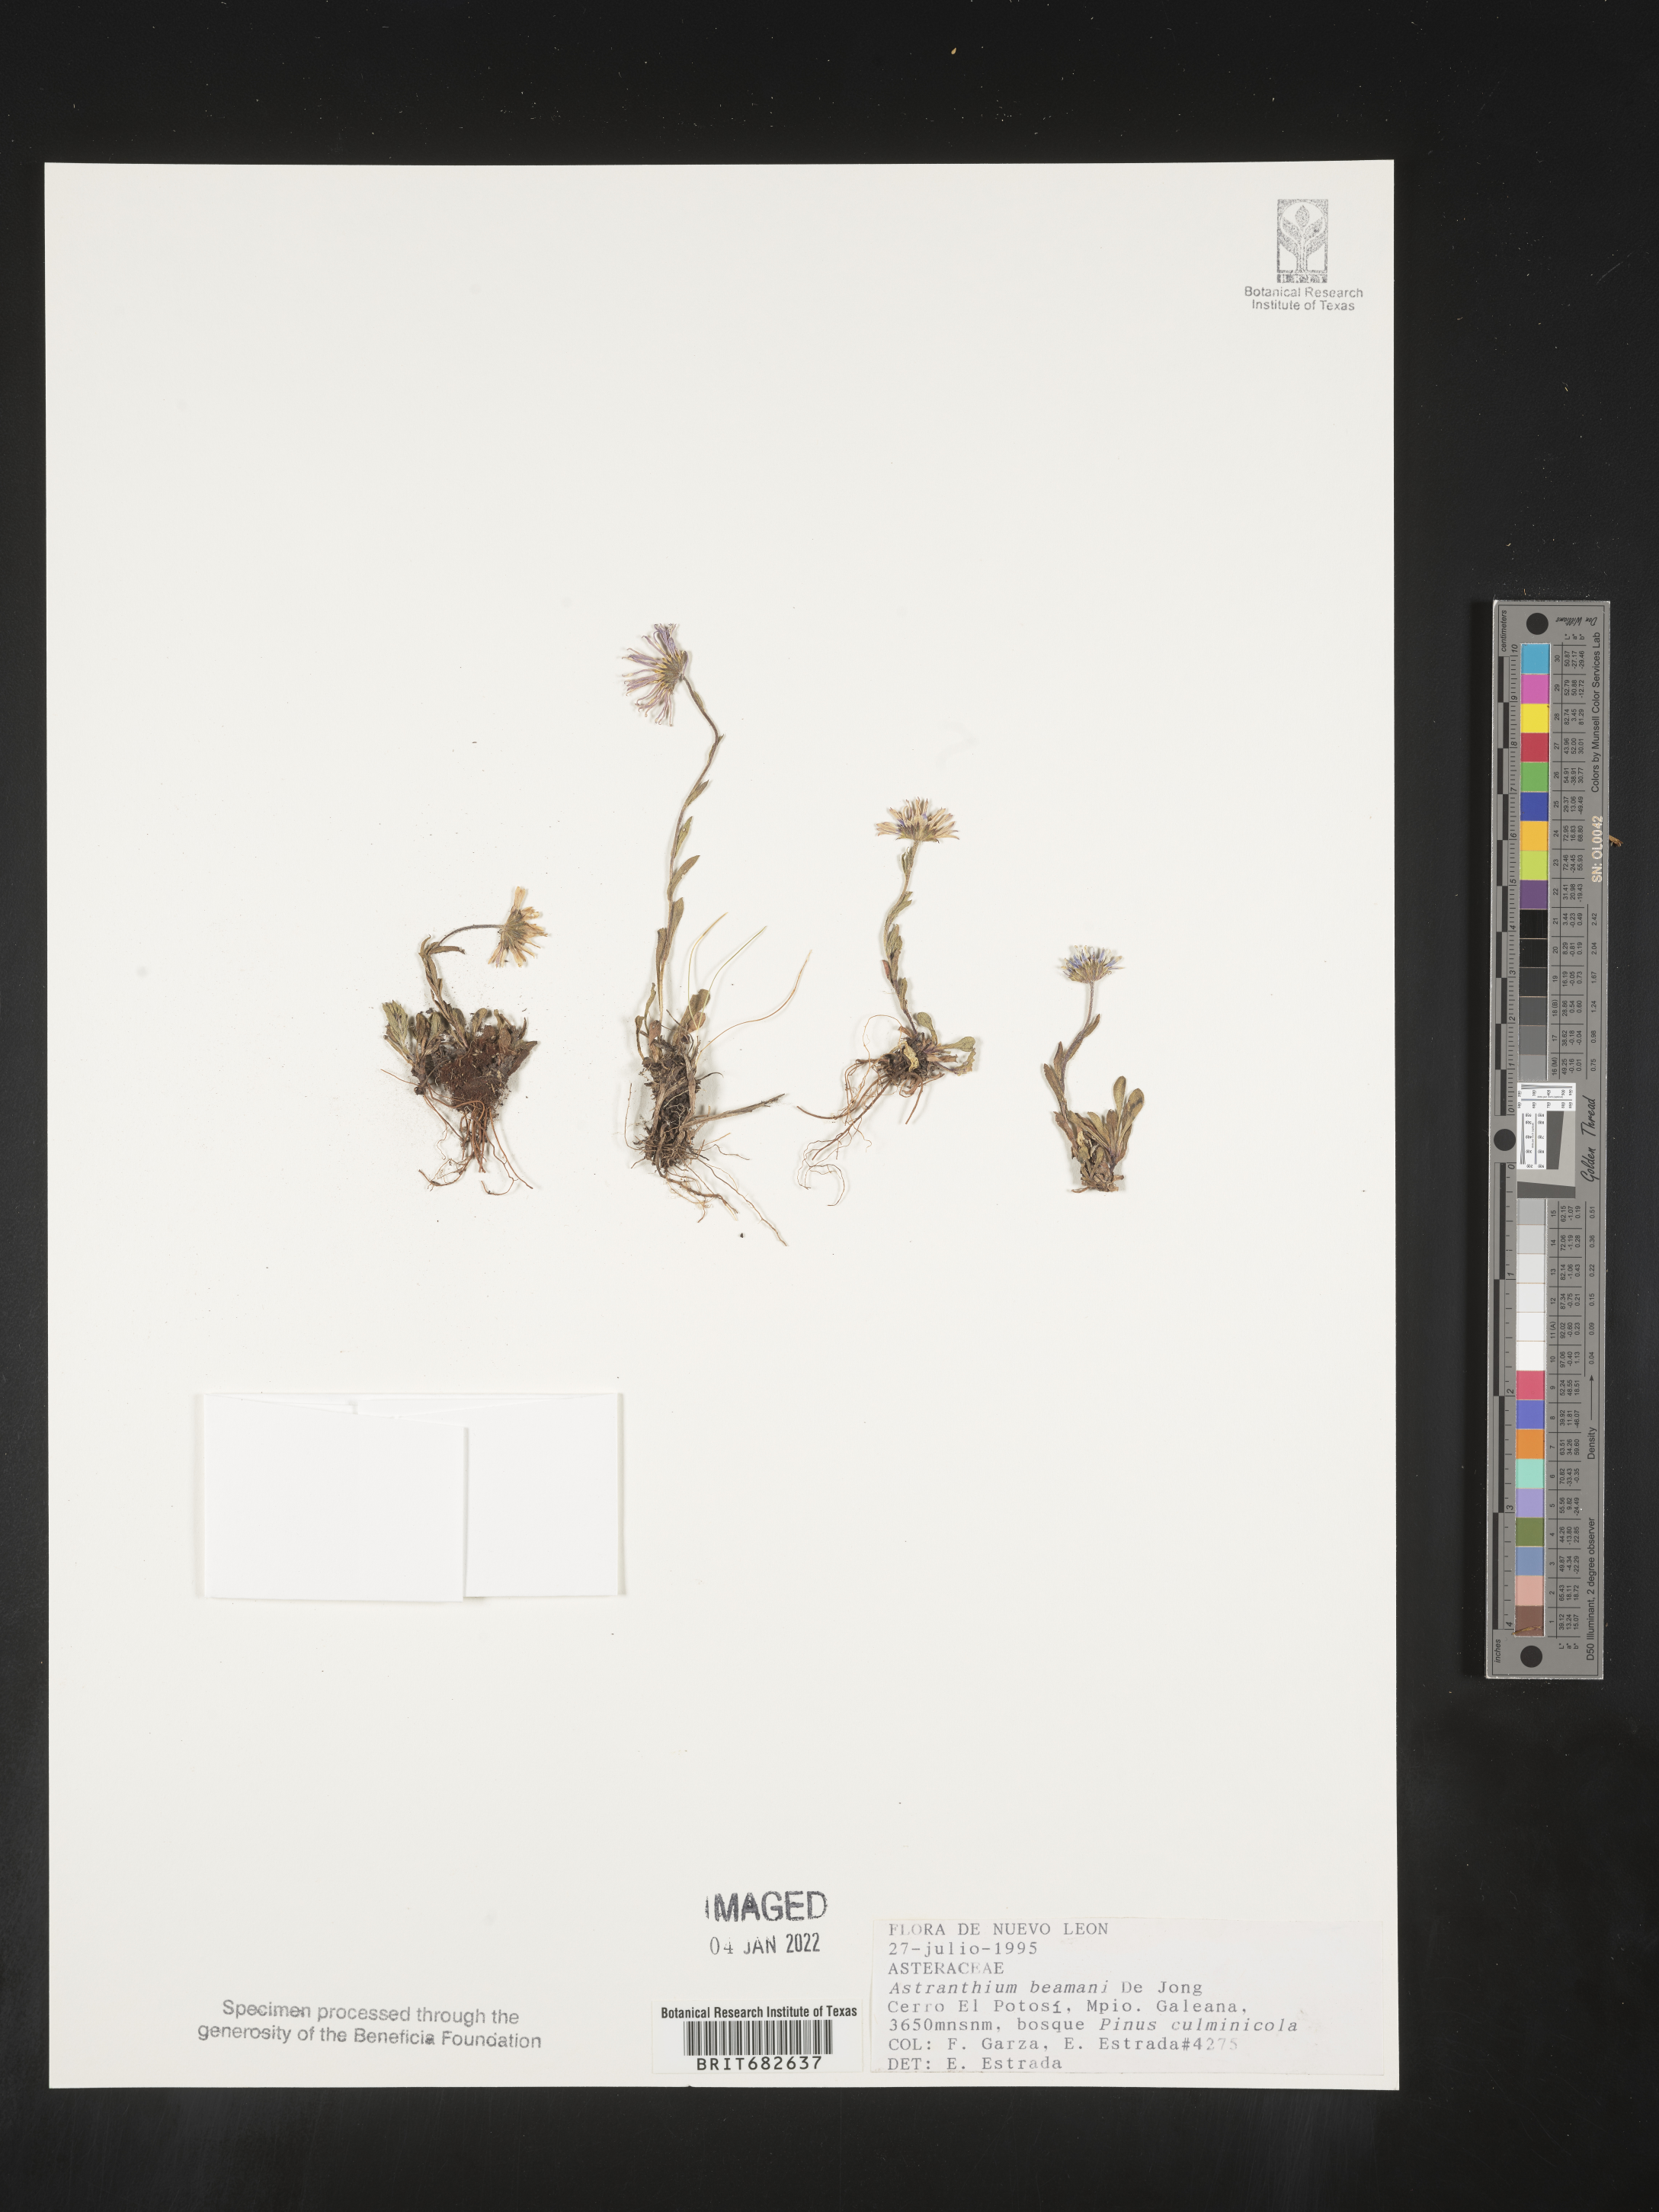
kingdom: Plantae
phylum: Tracheophyta
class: Magnoliopsida
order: Asterales
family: Asteraceae
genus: Astranthium
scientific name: Astranthium
